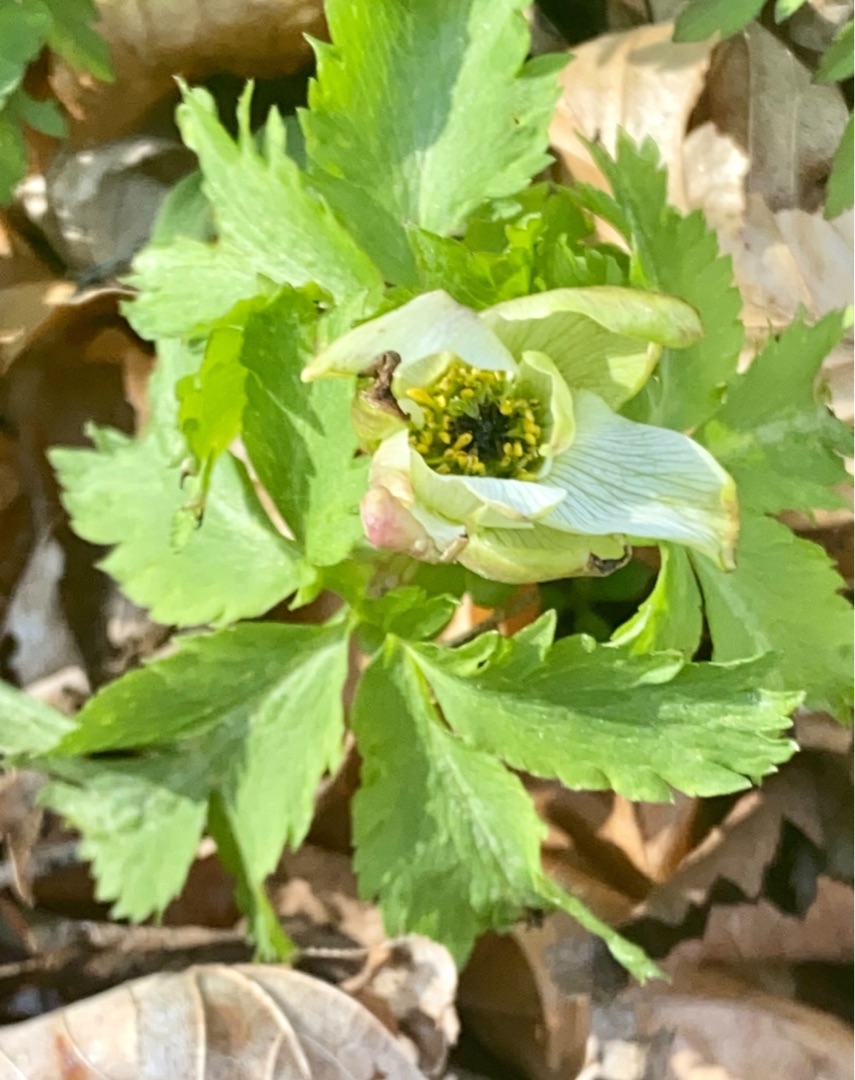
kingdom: Plantae
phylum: Tracheophyta
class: Magnoliopsida
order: Ranunculales
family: Ranunculaceae
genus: Anemone
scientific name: Anemone nemorosa
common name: Hvid anemone
